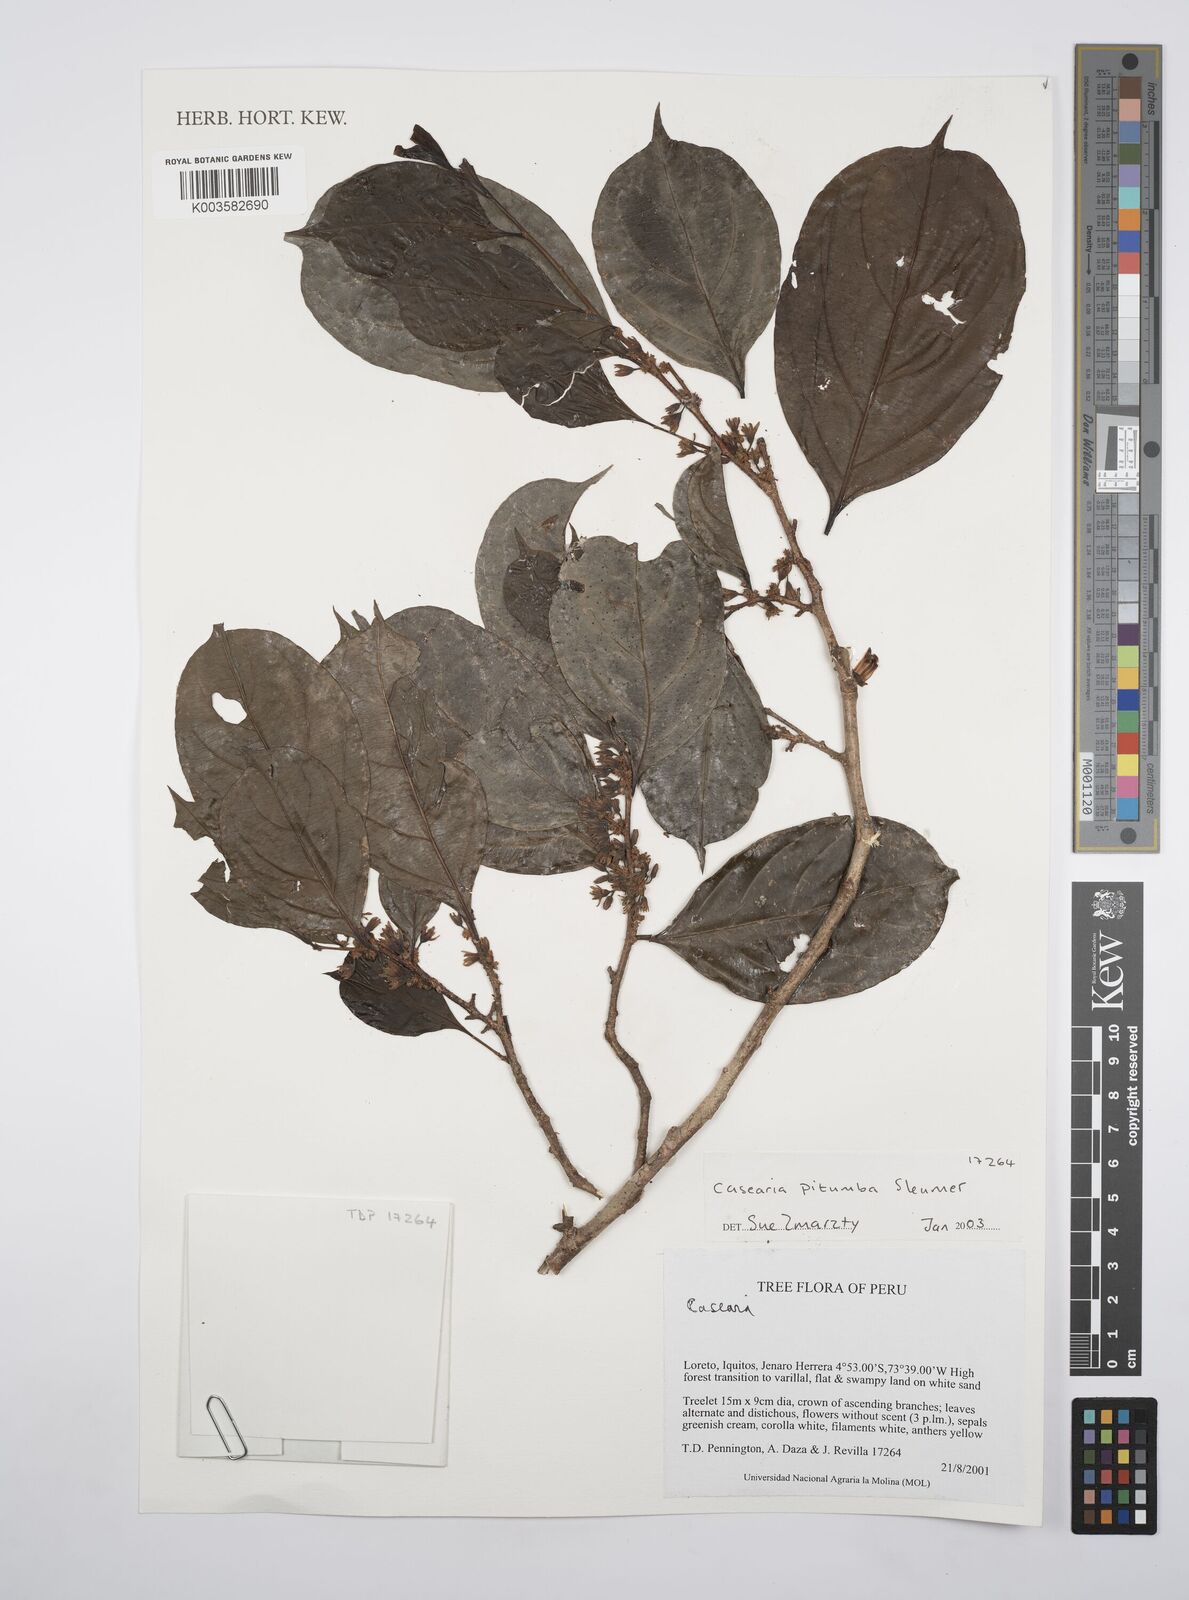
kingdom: Plantae
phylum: Tracheophyta
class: Magnoliopsida
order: Malpighiales
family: Salicaceae
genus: Casearia
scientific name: Casearia pitumba
